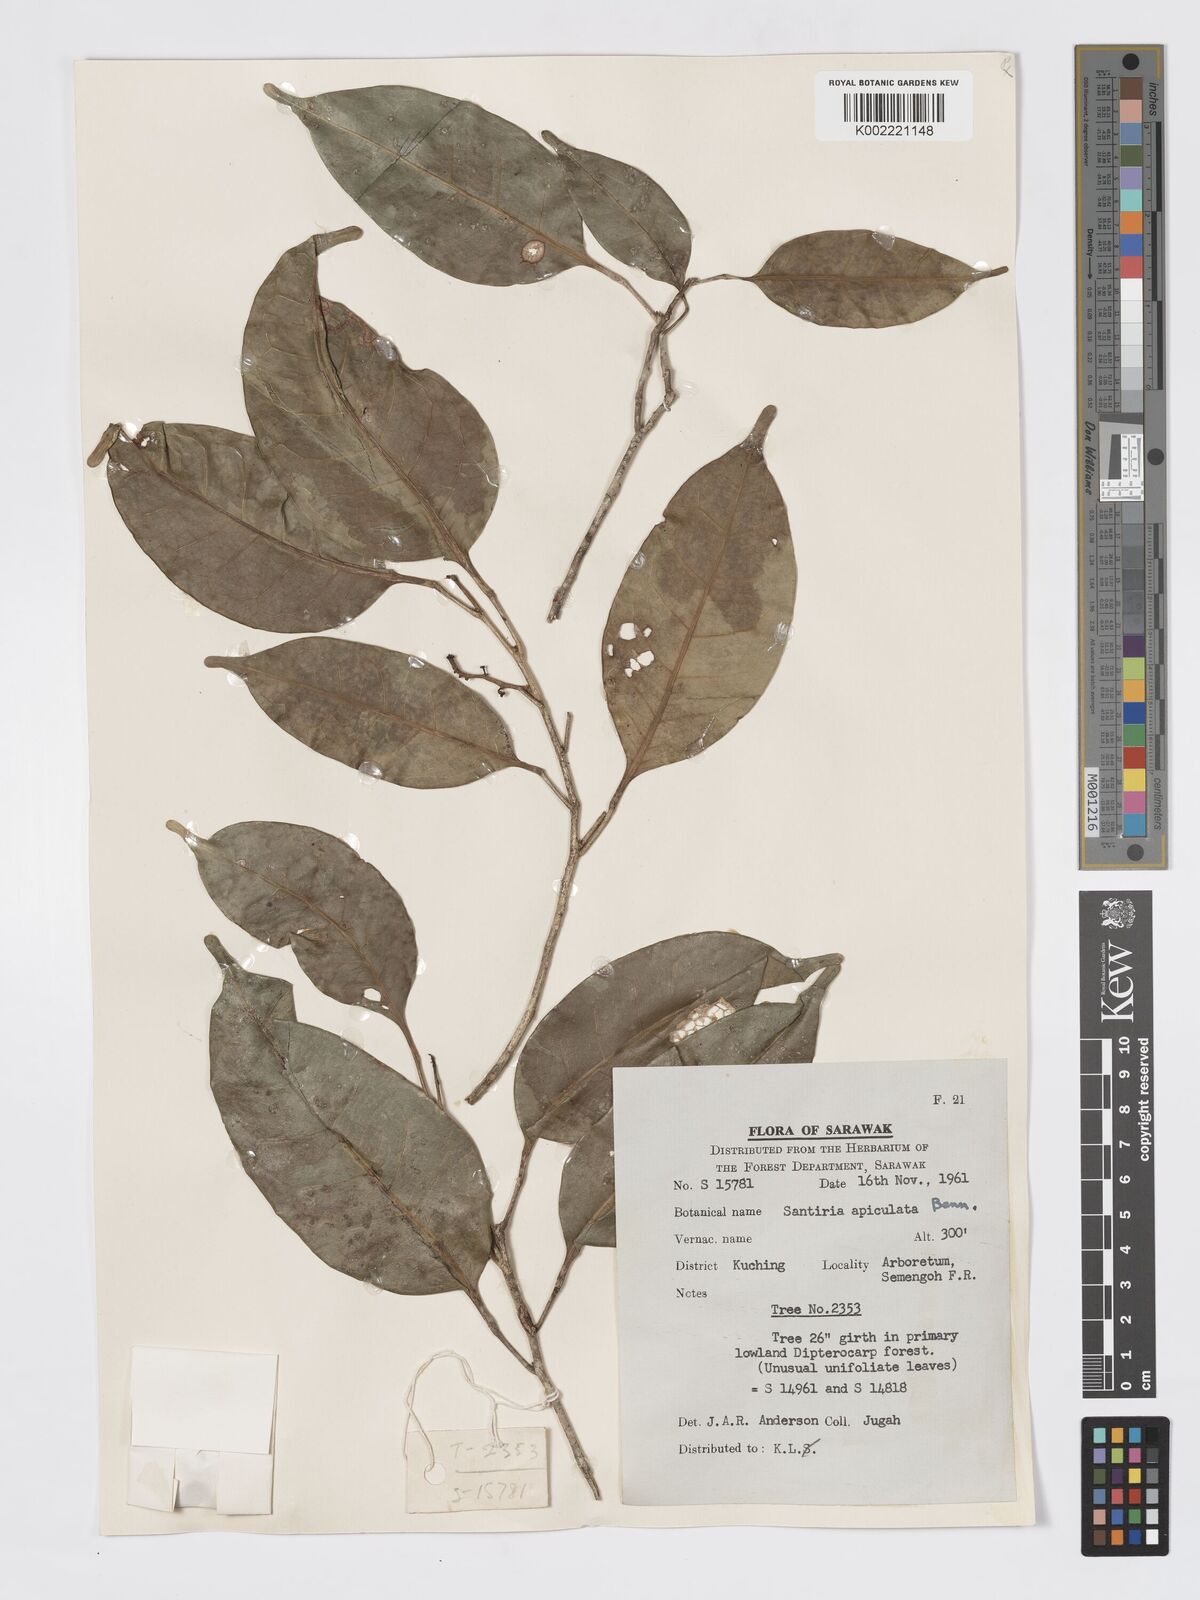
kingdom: Plantae
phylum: Tracheophyta
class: Magnoliopsida
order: Sapindales
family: Burseraceae
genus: Santiria
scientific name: Santiria apiculata
